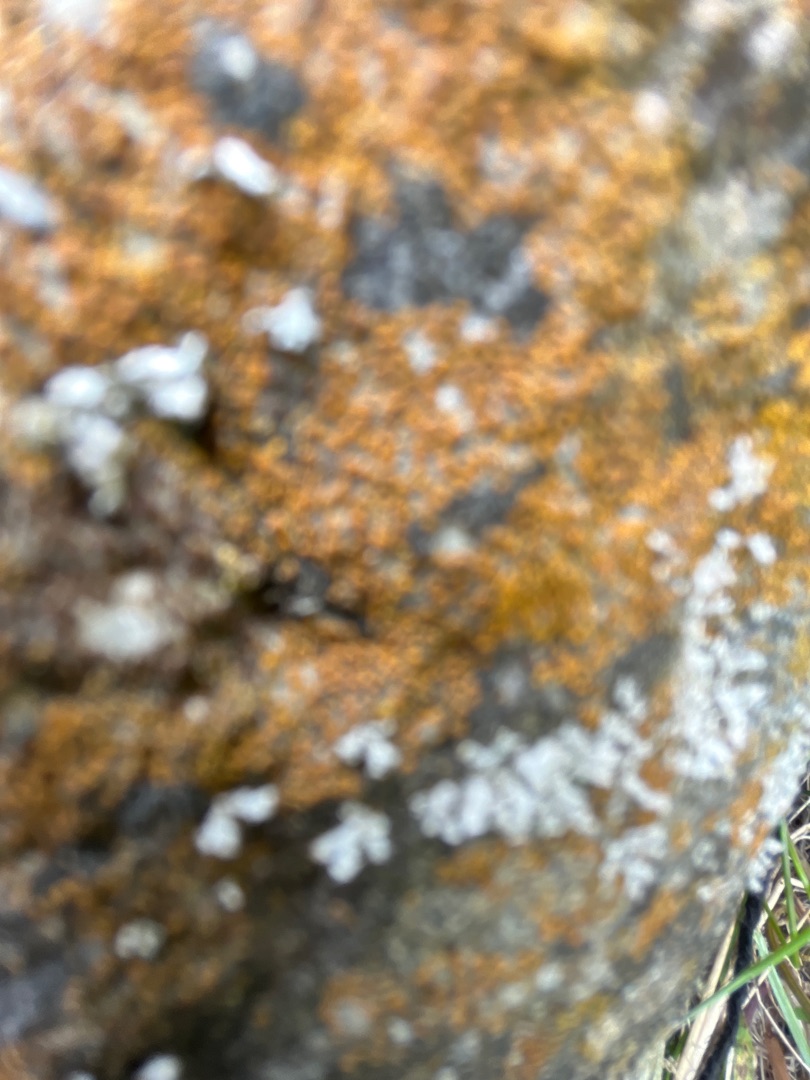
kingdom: Fungi
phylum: Ascomycota
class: Lecanoromycetes
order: Teloschistales
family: Teloschistaceae
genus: Xanthoria
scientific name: Xanthoria parietina
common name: Almindelig væggelav
